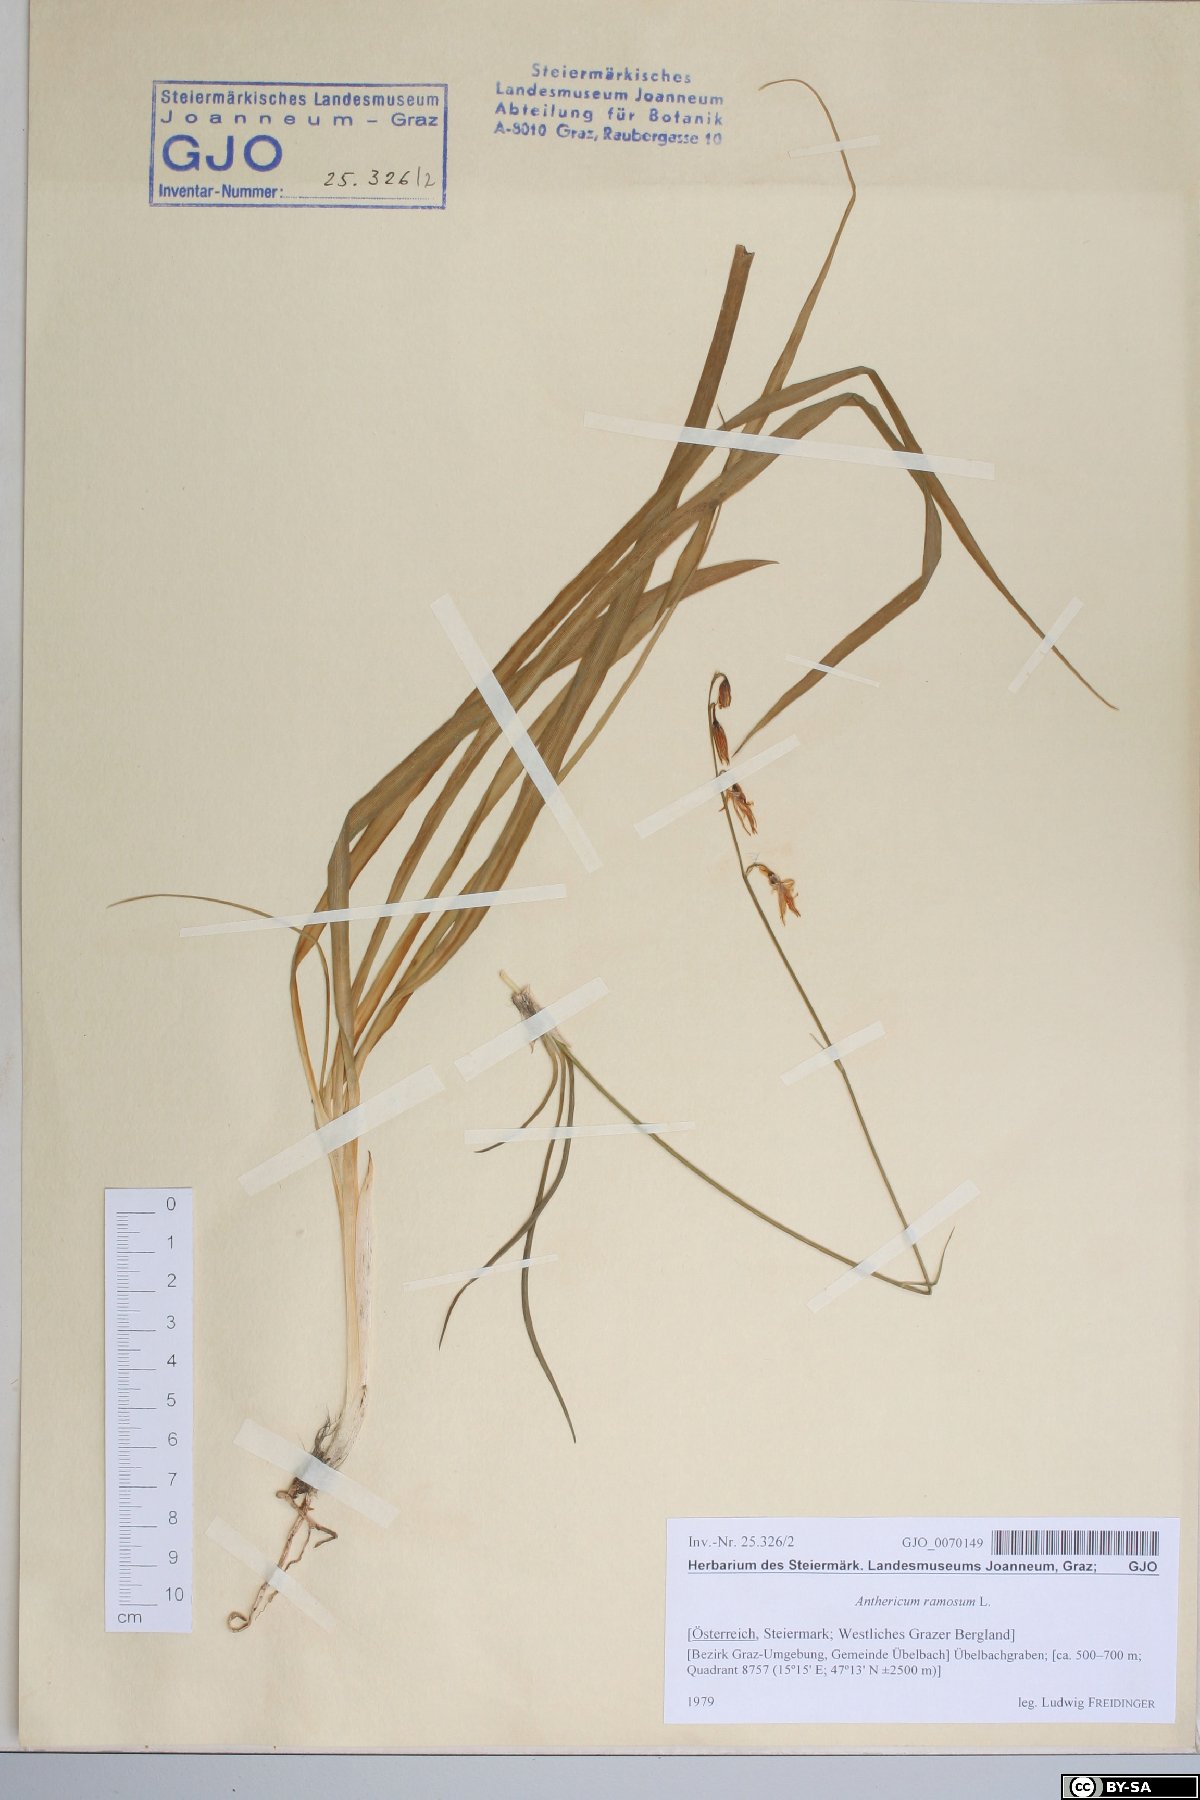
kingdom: Plantae
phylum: Tracheophyta
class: Liliopsida
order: Asparagales
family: Asparagaceae
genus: Anthericum
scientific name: Anthericum ramosum
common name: Branched st. bernard's-lily
